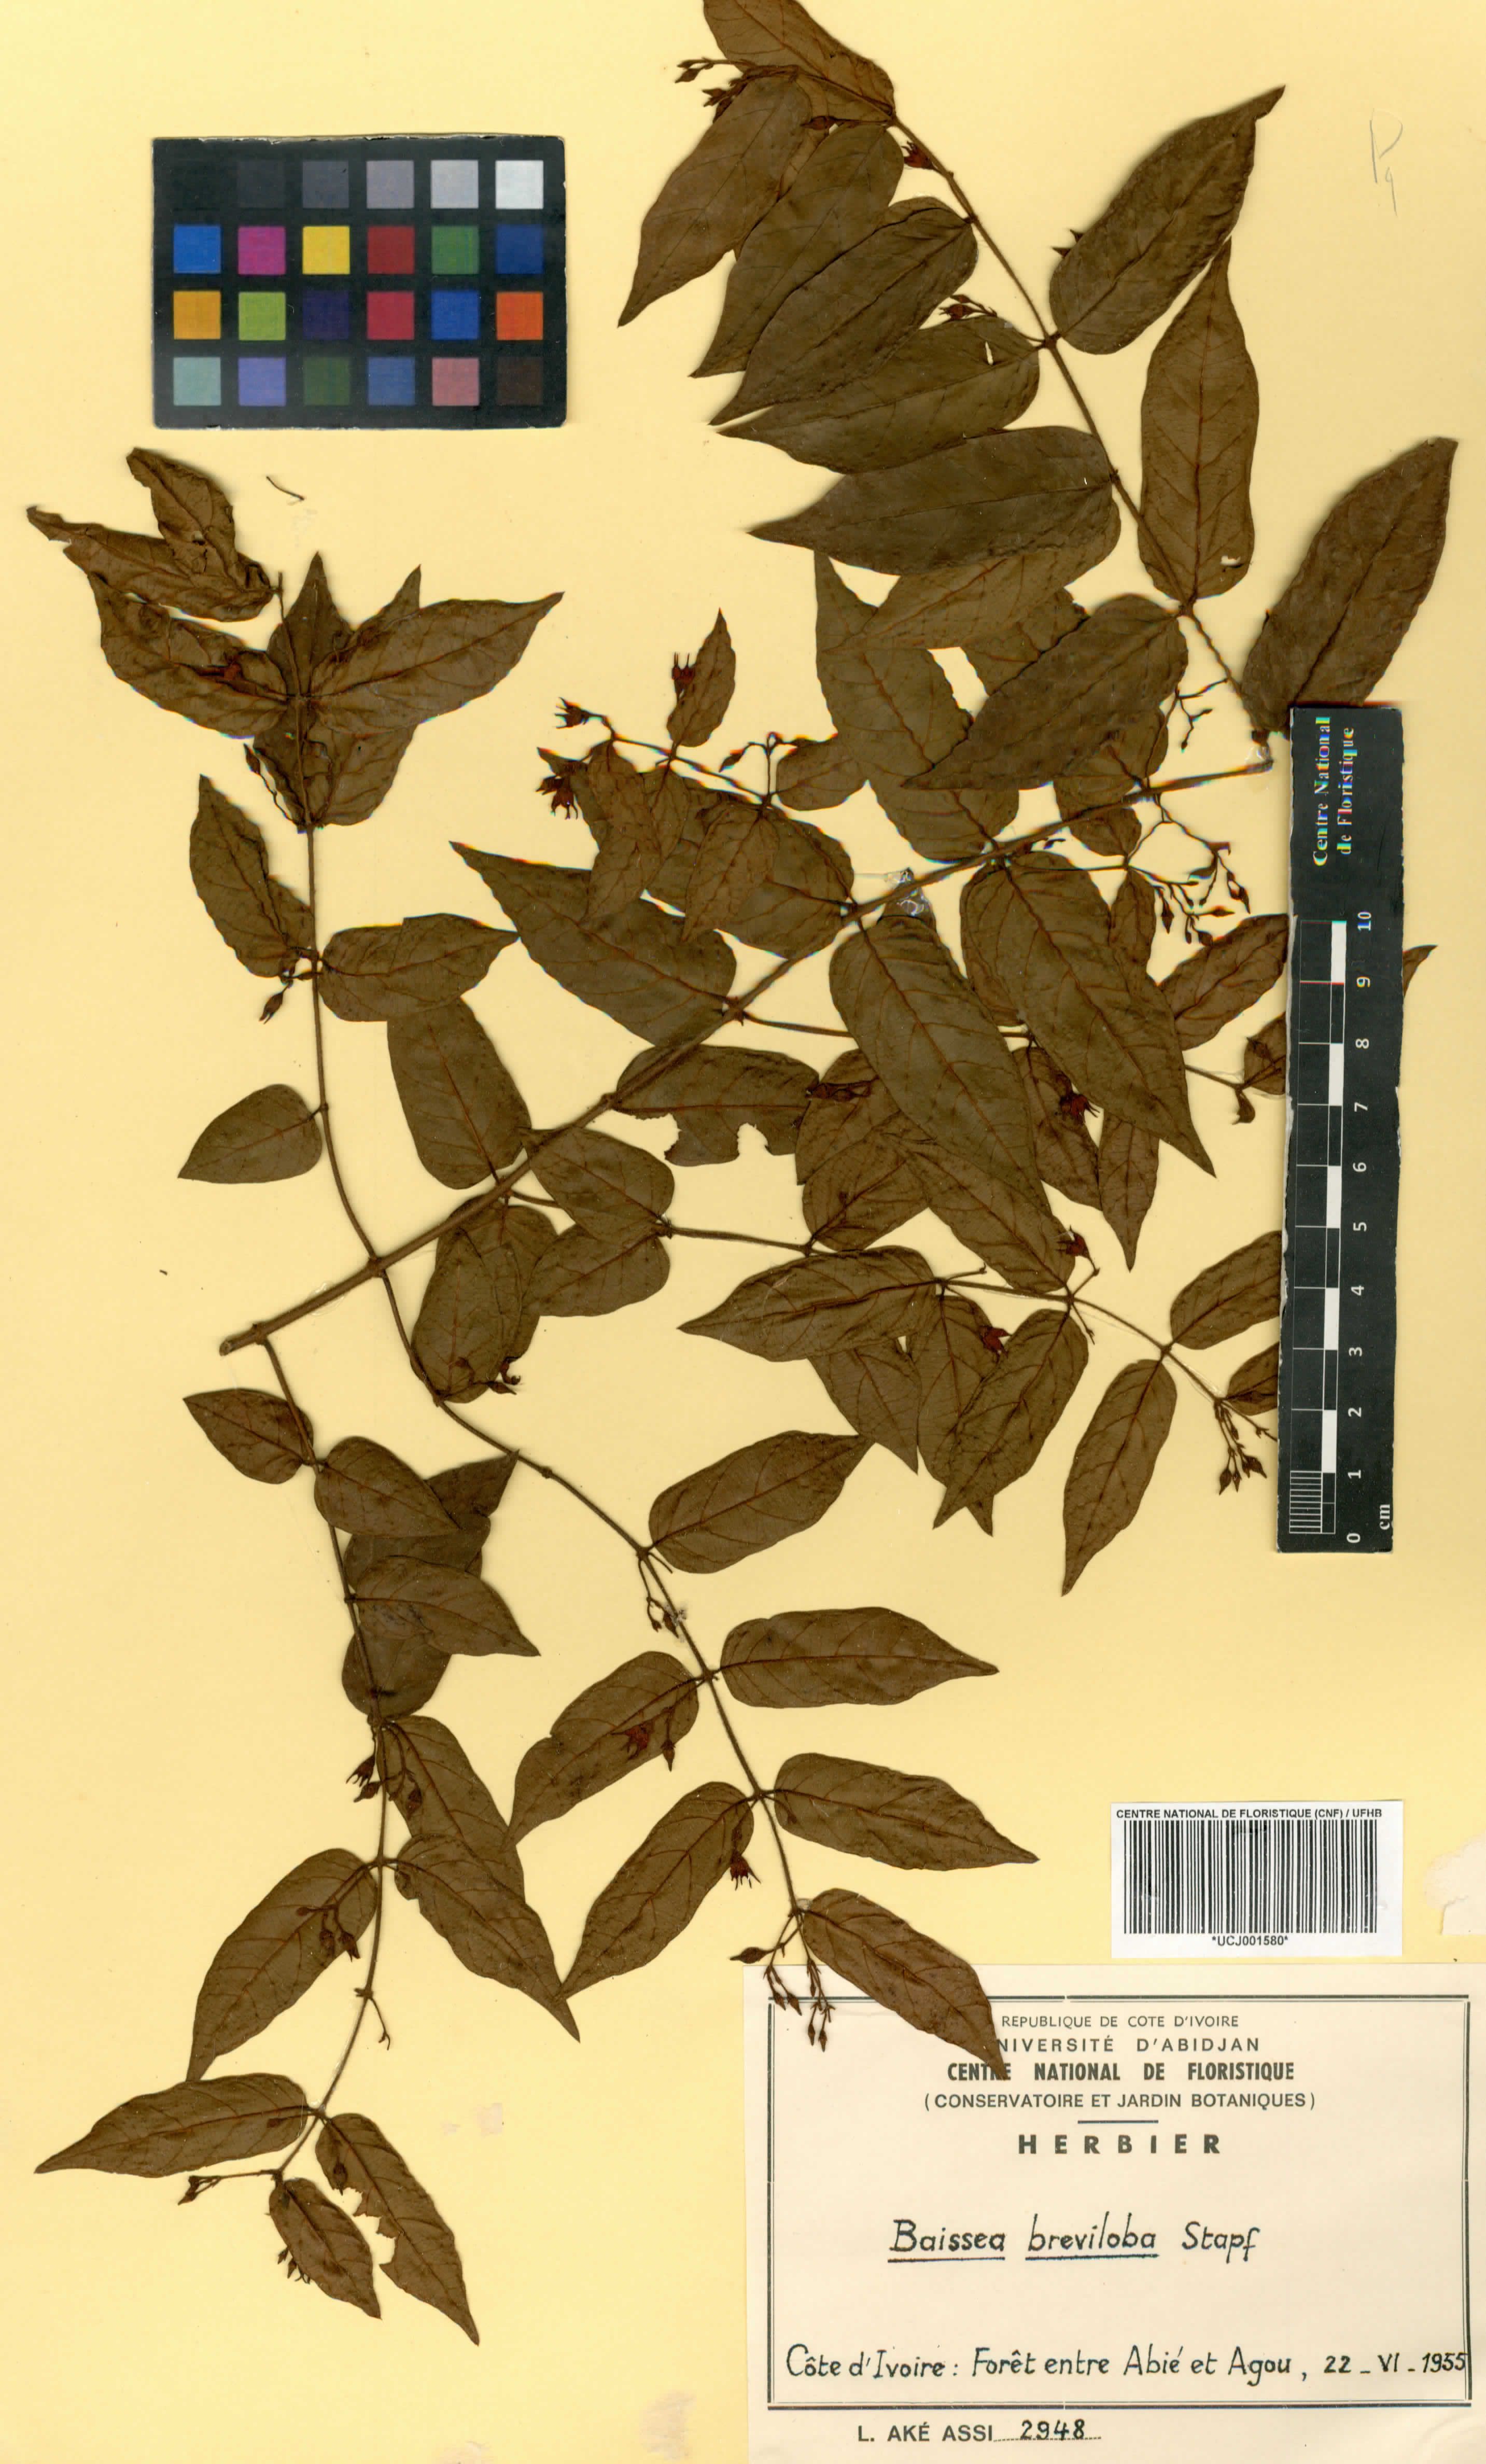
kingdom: Plantae
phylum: Tracheophyta
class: Magnoliopsida
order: Gentianales
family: Apocynaceae
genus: Baissea
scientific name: Baissea baillonii
